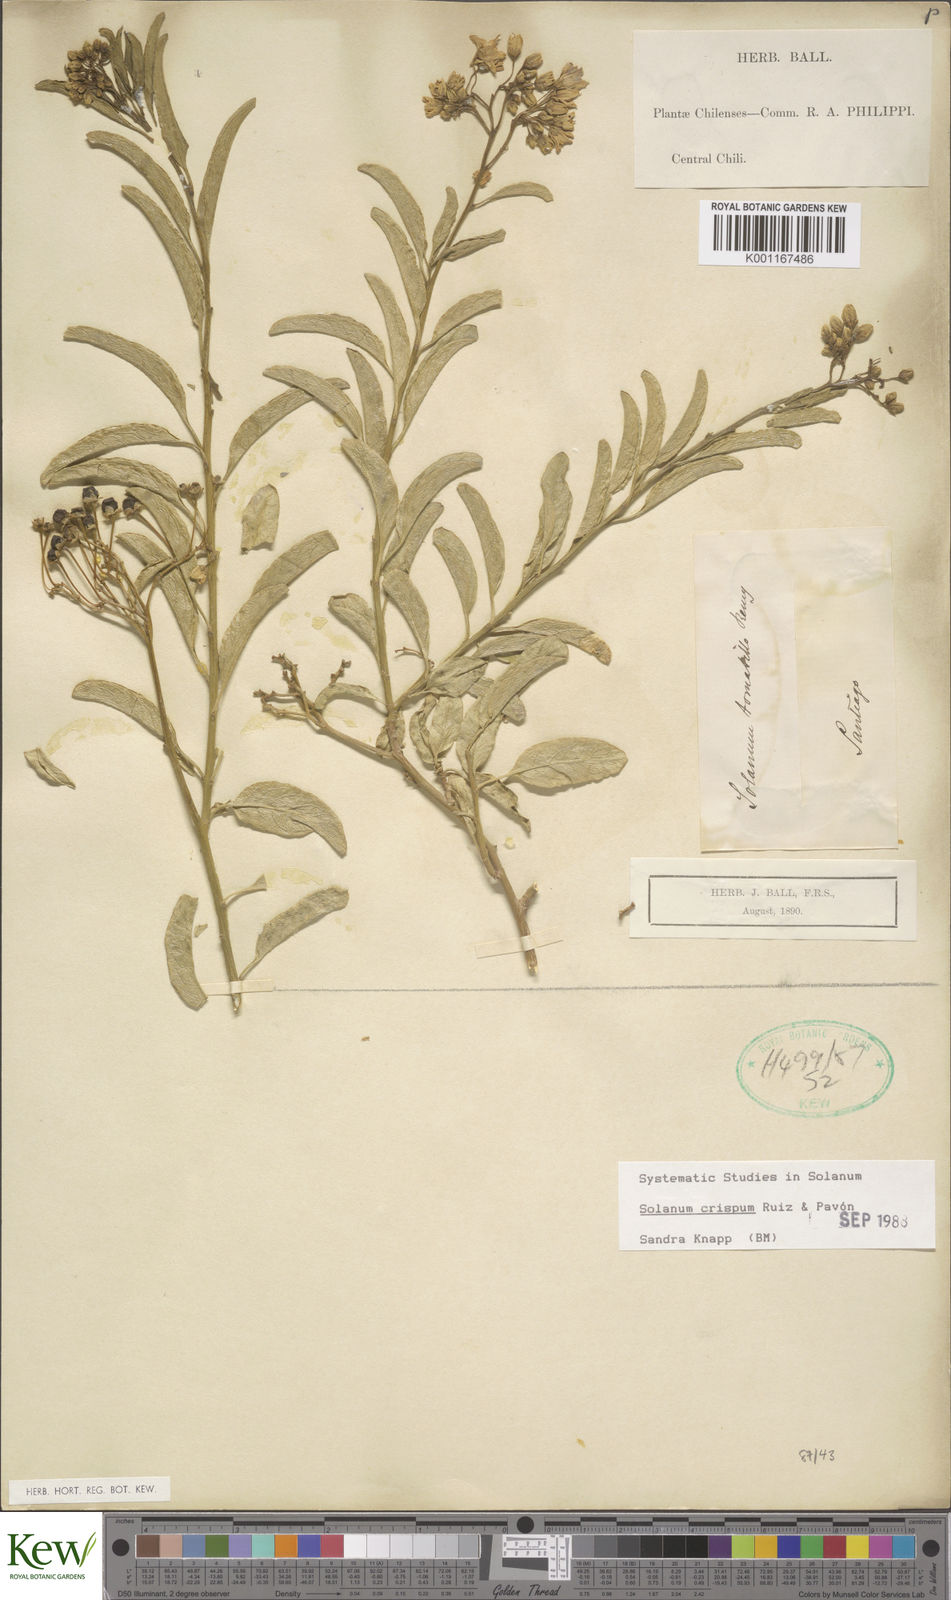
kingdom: Plantae
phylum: Tracheophyta
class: Magnoliopsida
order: Solanales
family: Solanaceae
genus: Solanum
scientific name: Solanum crispum
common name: Chilean nightshade
